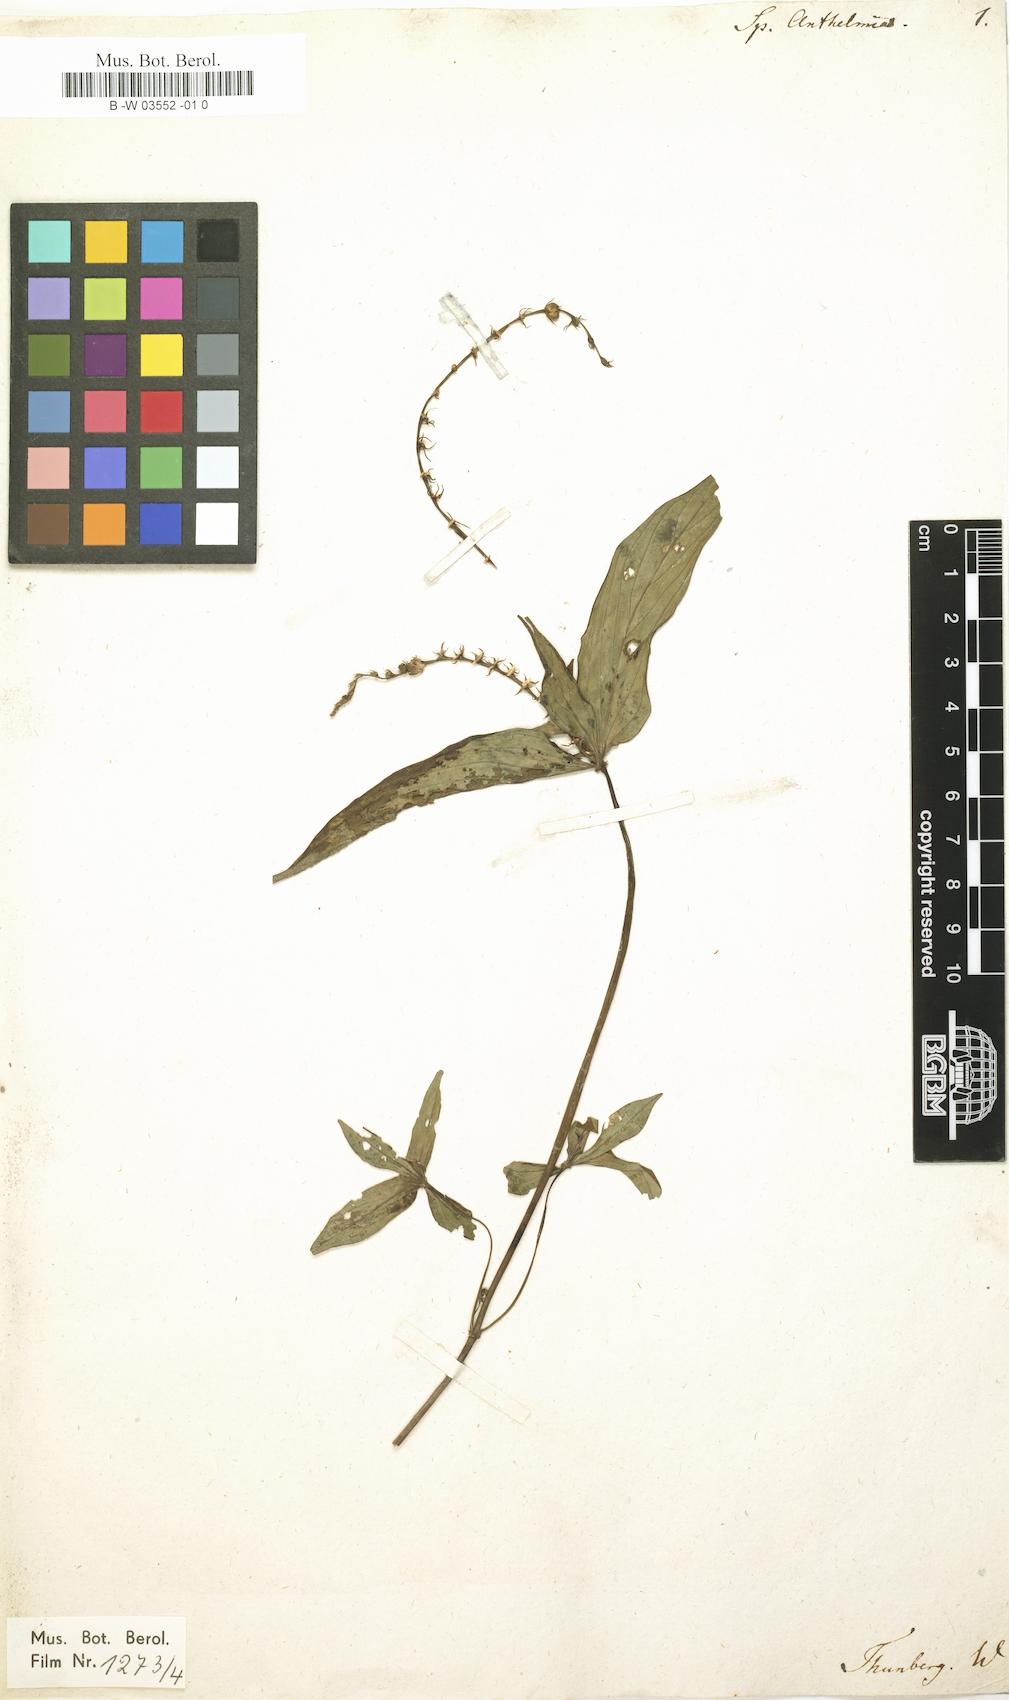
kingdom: Plantae
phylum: Tracheophyta
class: Magnoliopsida
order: Gentianales
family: Loganiaceae
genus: Spigelia
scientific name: Spigelia anthelmia
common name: West indian-pink
